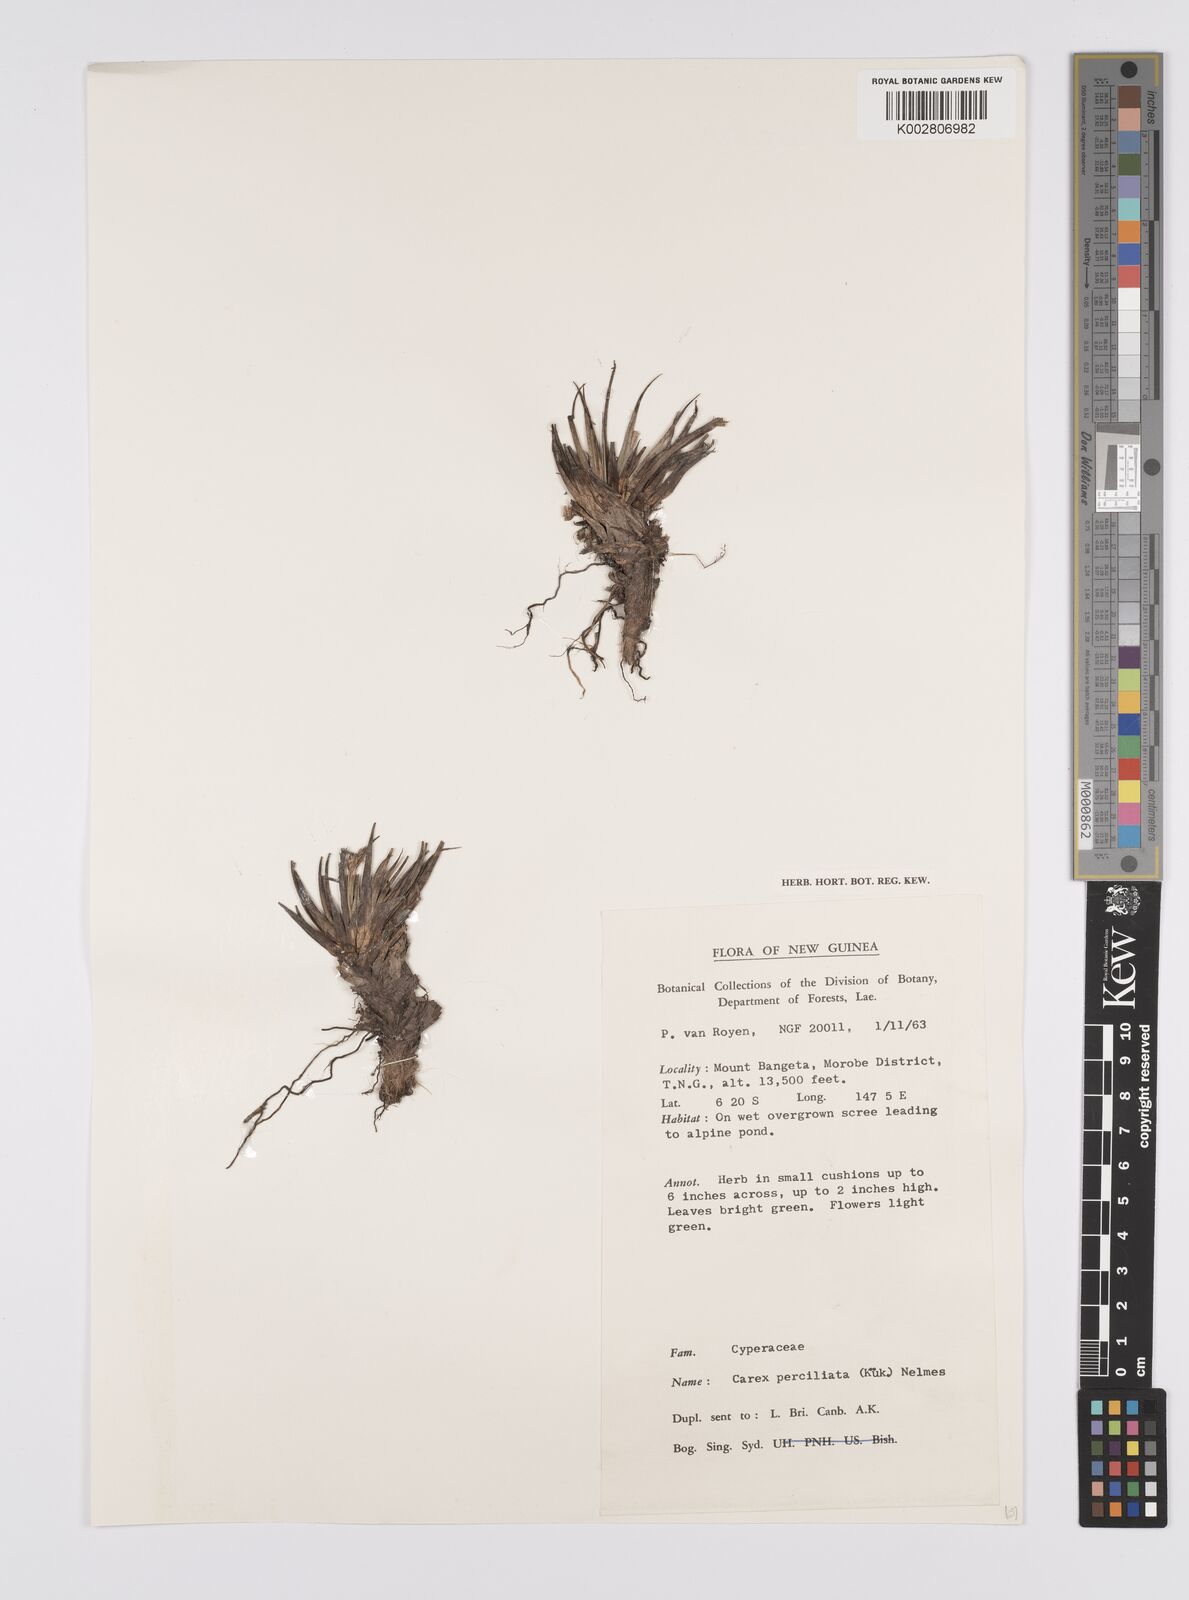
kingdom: Plantae
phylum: Tracheophyta
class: Liliopsida
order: Poales
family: Cyperaceae
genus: Carex
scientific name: Carex breviculmis
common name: Asian shortstem sedge
